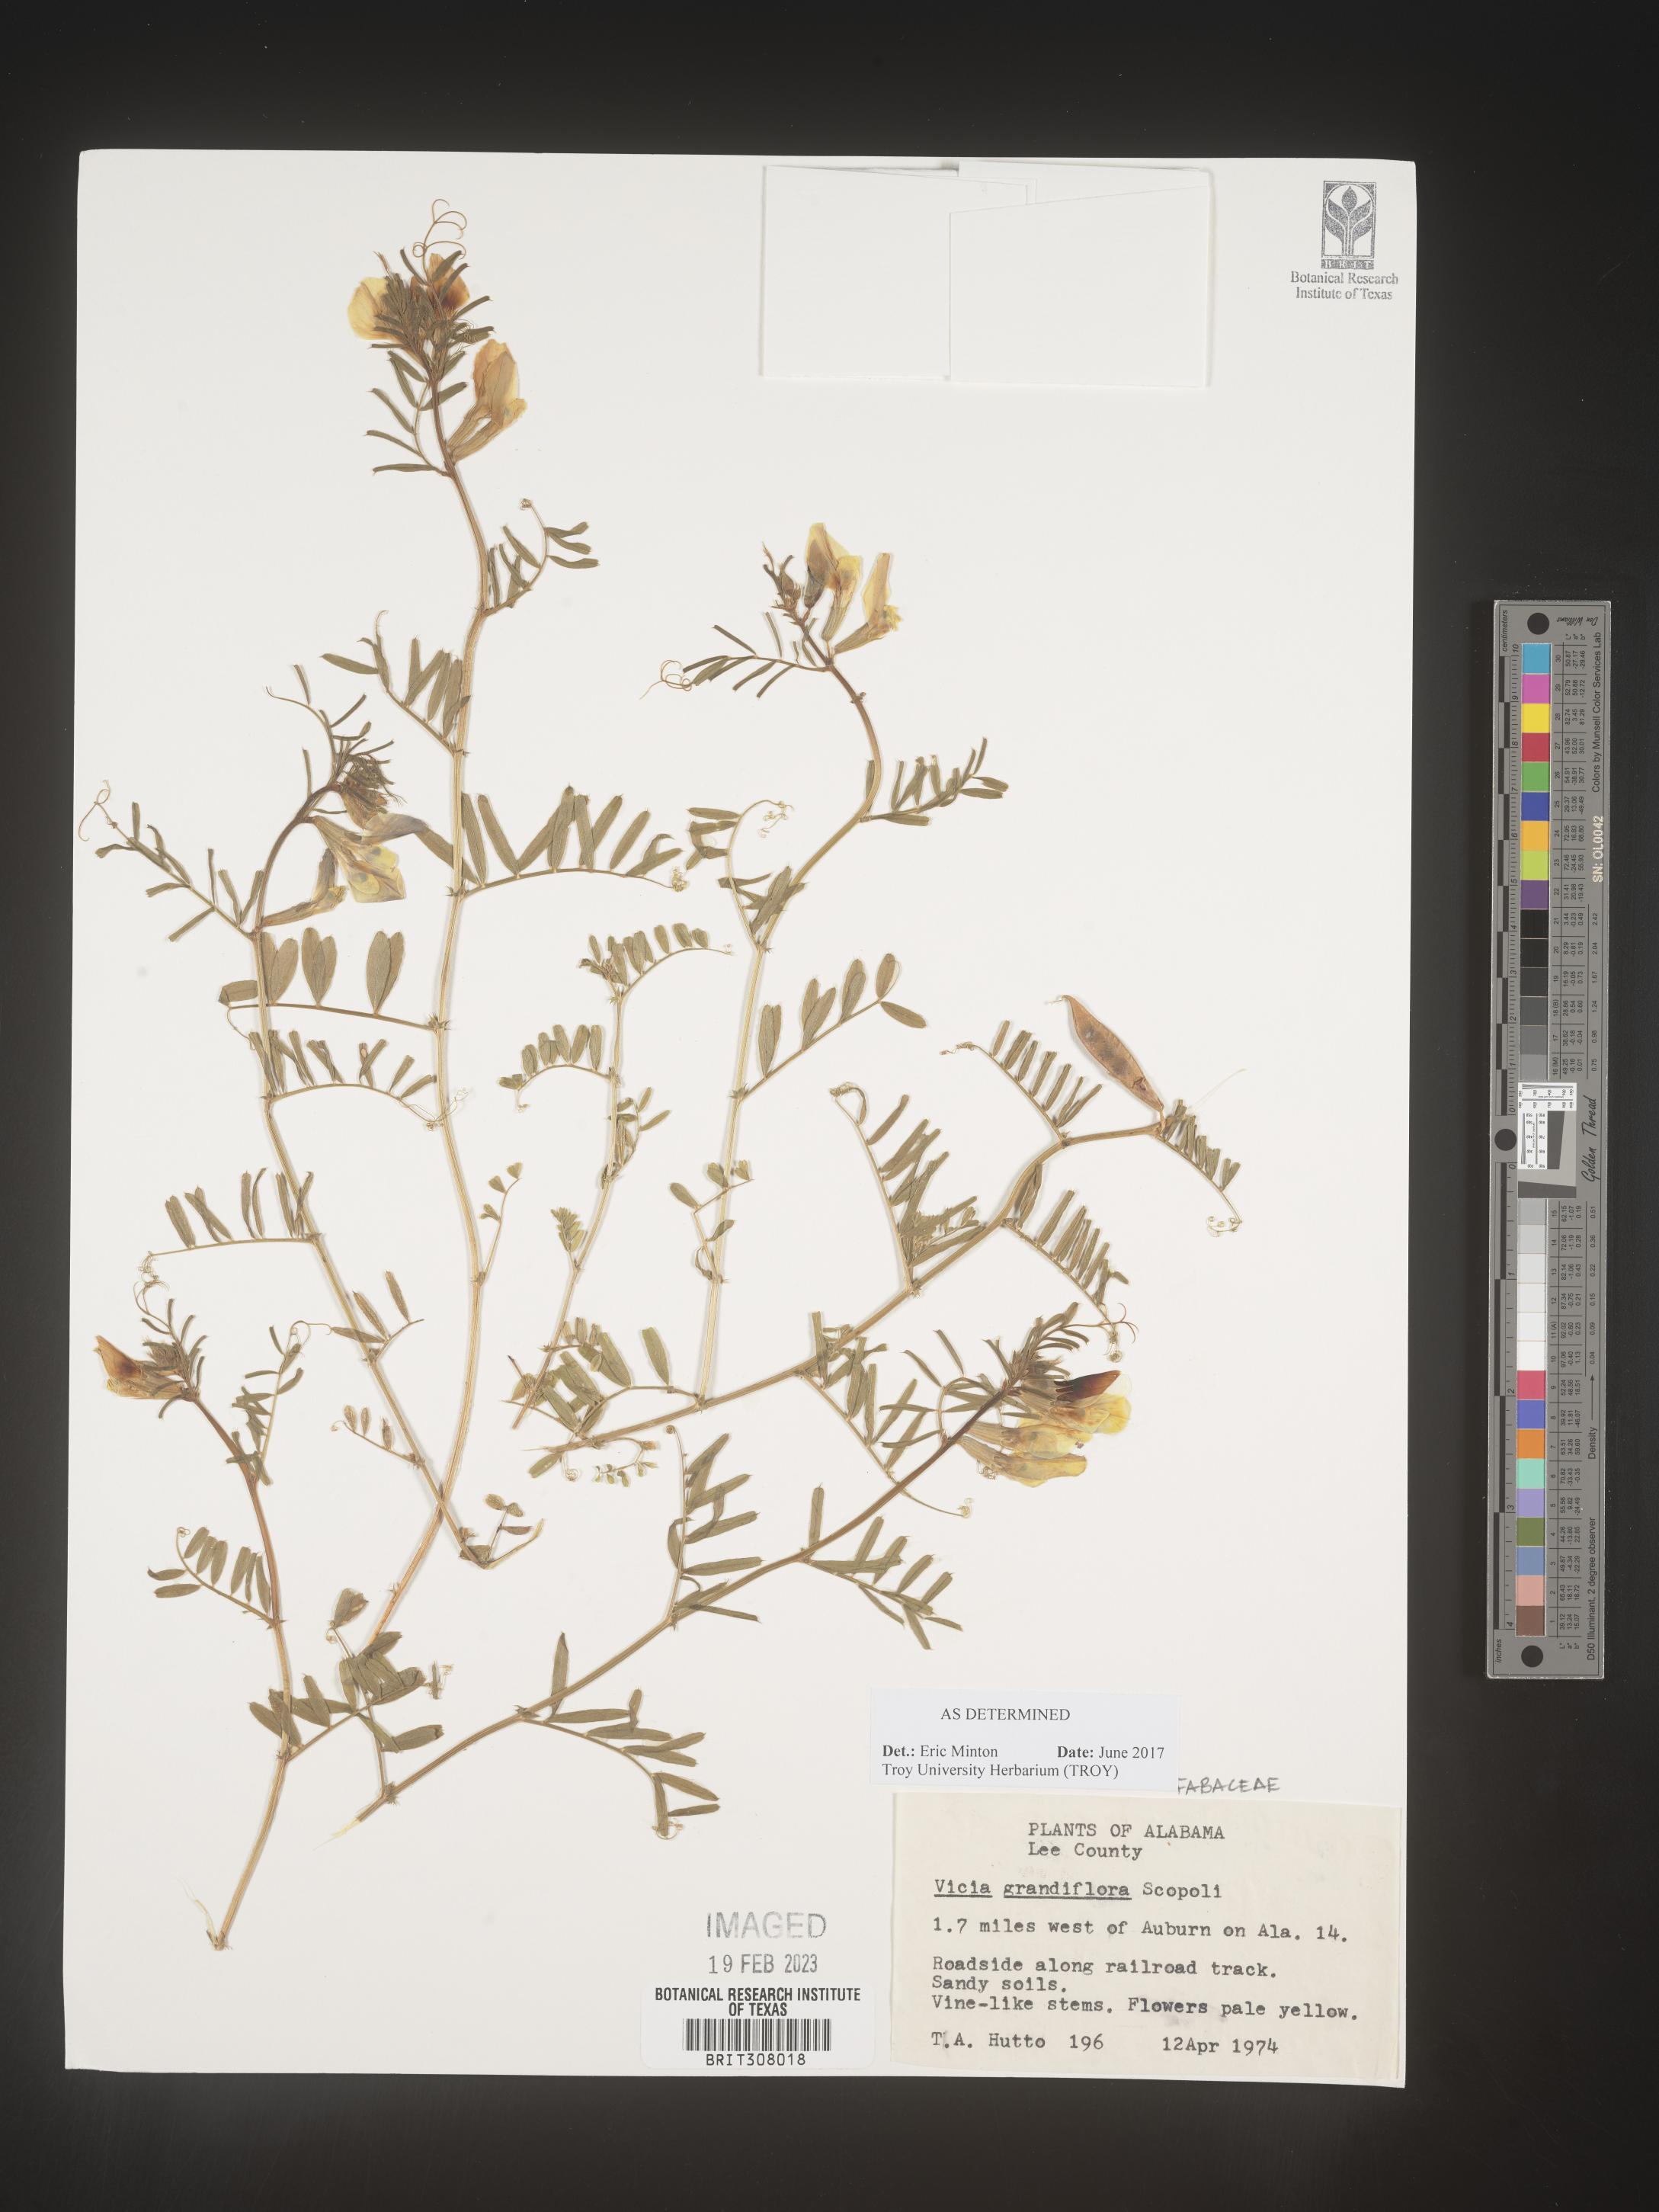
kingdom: Plantae
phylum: Tracheophyta
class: Magnoliopsida
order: Fabales
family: Fabaceae
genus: Vicia
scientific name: Vicia grandiflora
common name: Large yellow vetch
